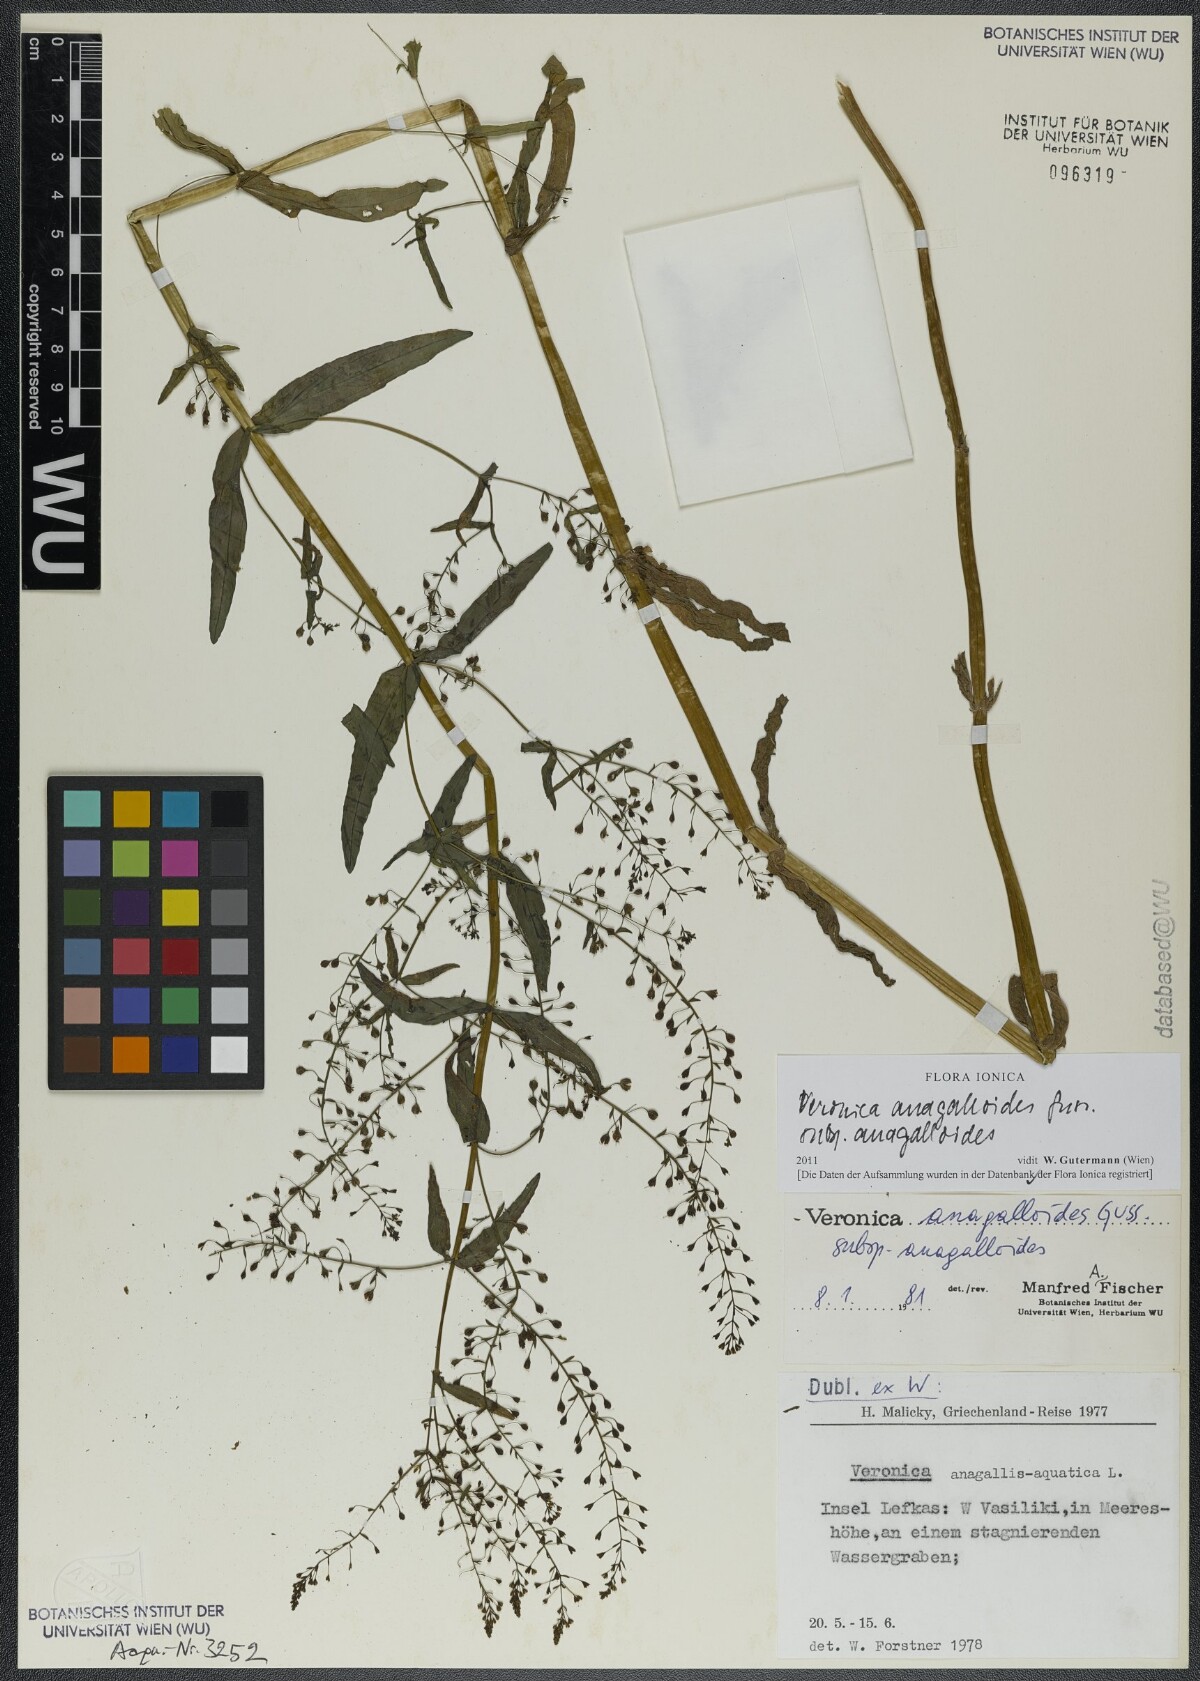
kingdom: Plantae
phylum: Tracheophyta
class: Magnoliopsida
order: Lamiales
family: Plantaginaceae
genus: Veronica
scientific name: Veronica anagalloides
